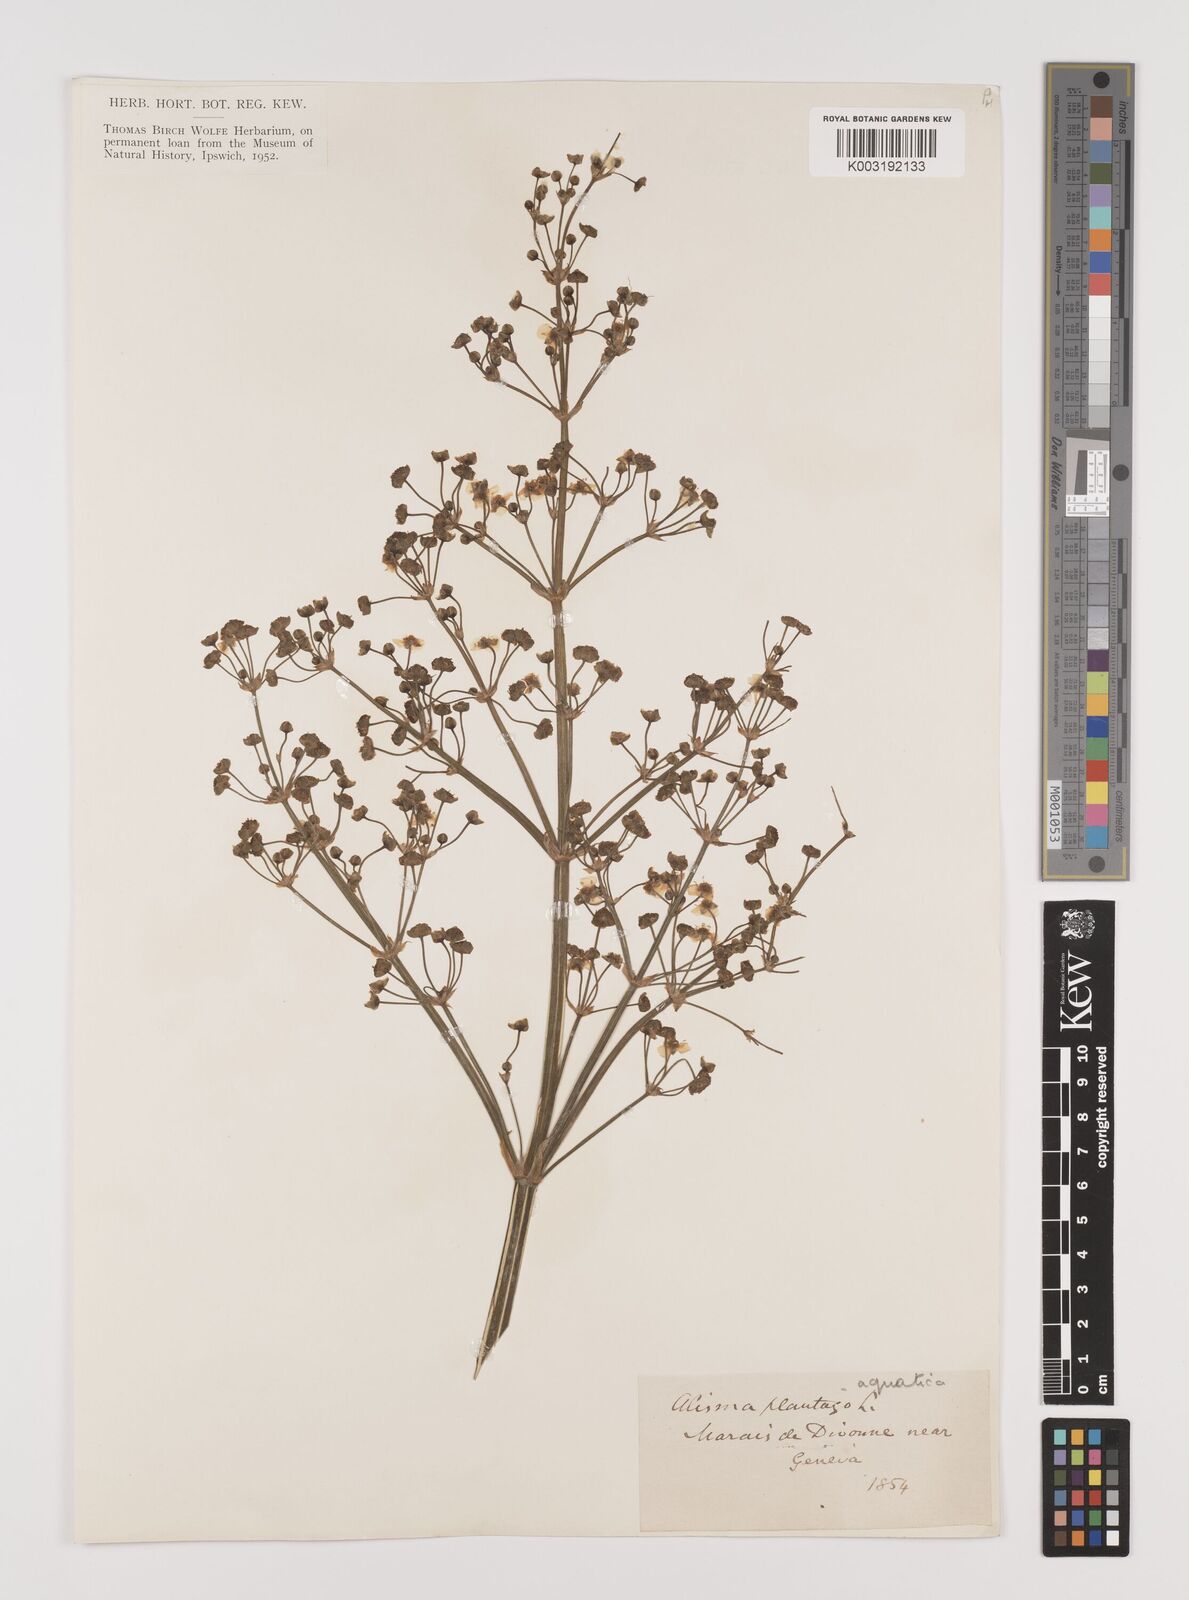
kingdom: Plantae
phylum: Tracheophyta
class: Liliopsida
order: Alismatales
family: Alismataceae
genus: Alisma
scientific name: Alisma plantago-aquatica
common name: Water-plantain
